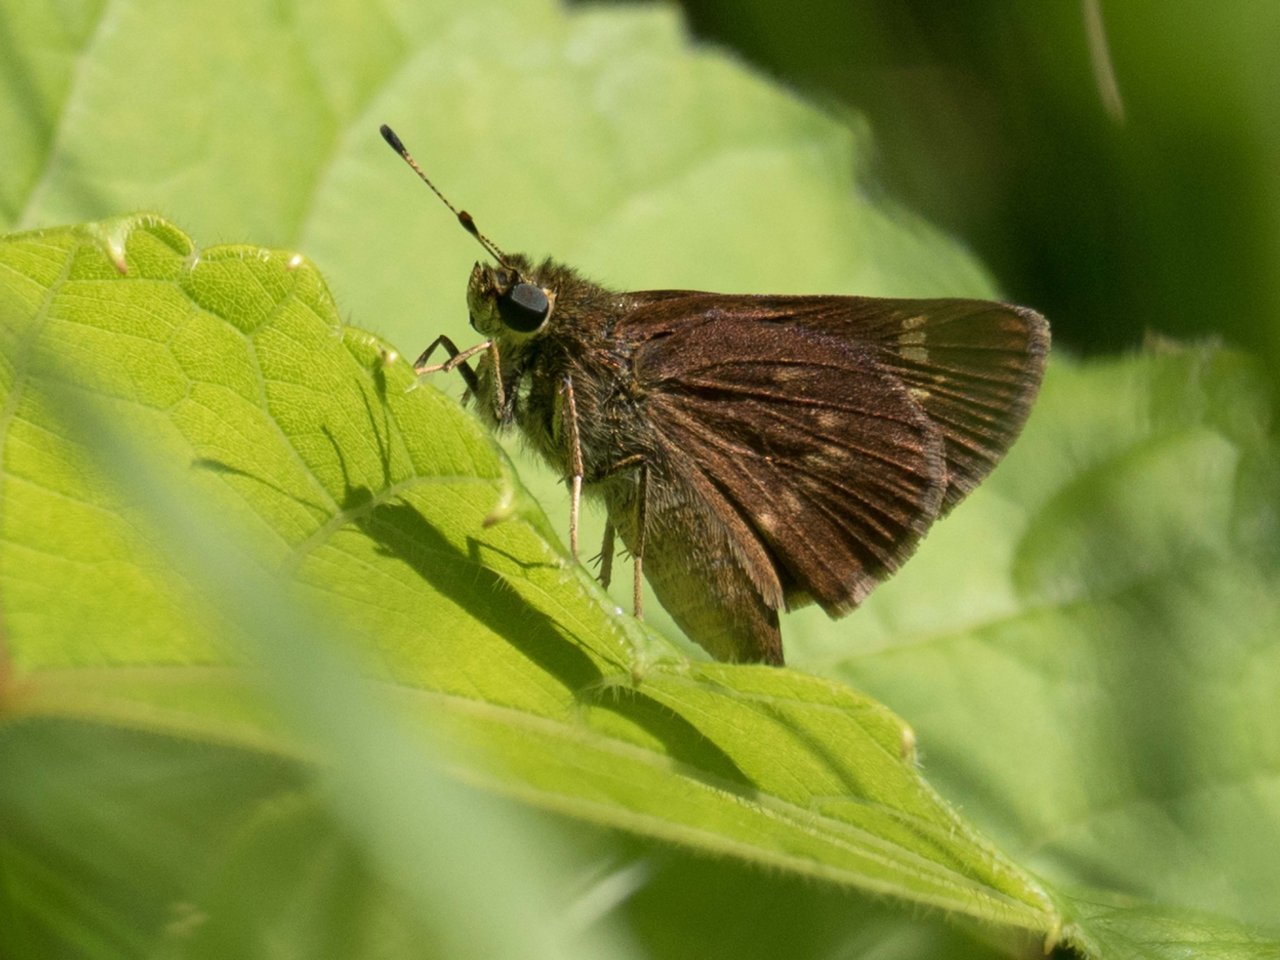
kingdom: Animalia
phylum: Arthropoda
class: Insecta
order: Lepidoptera
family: Hesperiidae
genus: Euphyes
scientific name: Euphyes vestris
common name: Dun Skipper
